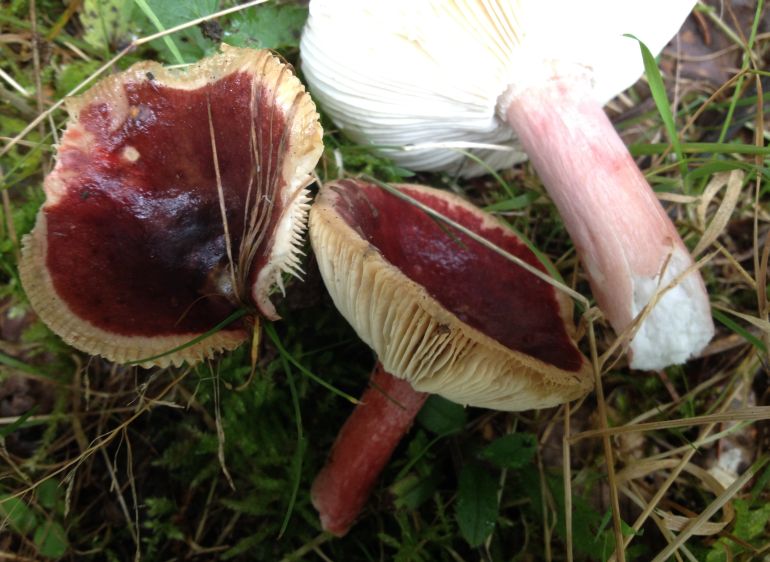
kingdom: Fungi
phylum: Basidiomycota
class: Agaricomycetes
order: Russulales
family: Russulaceae
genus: Russula
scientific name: Russula queletii
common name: Quélets skørhat
